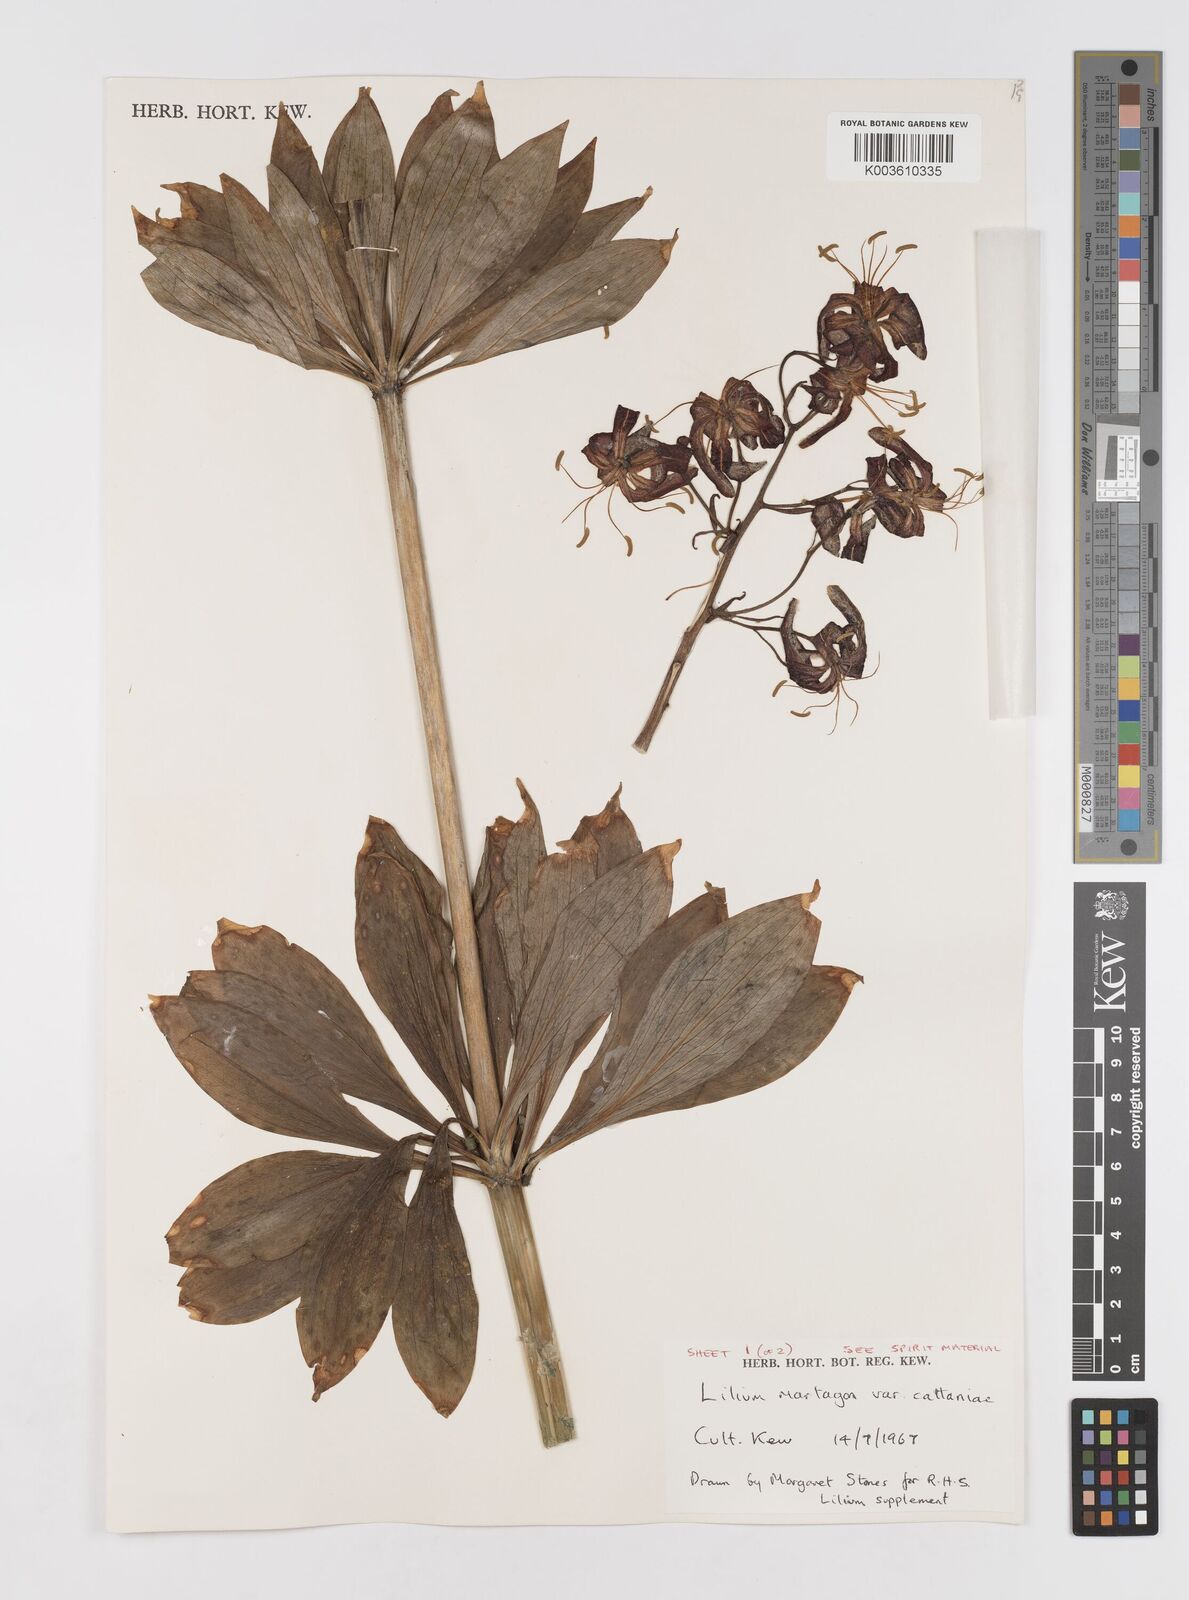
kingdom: Plantae
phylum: Tracheophyta
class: Liliopsida
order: Liliales
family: Liliaceae
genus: Lilium
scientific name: Lilium martagon
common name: Martagon lily
